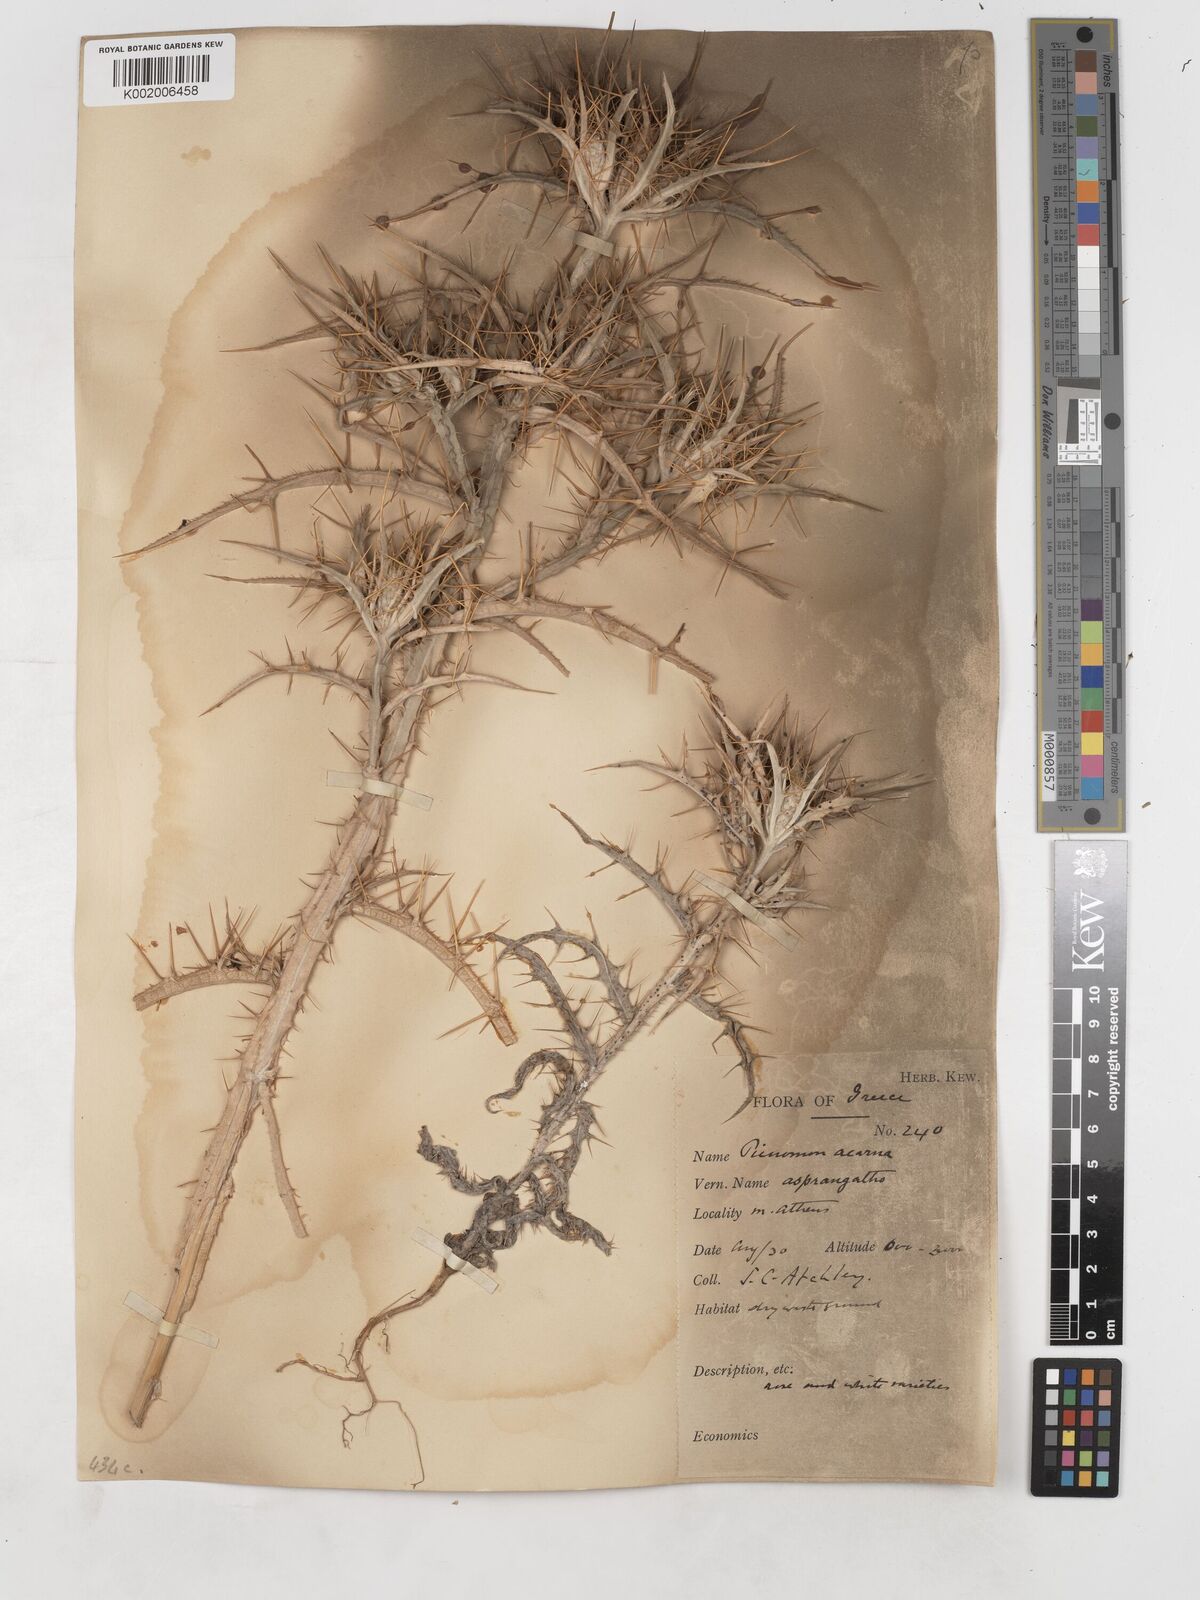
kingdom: Plantae
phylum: Tracheophyta
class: Magnoliopsida
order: Asterales
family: Asteraceae
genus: Picnomon
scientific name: Picnomon acarna
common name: Soldier thistle
